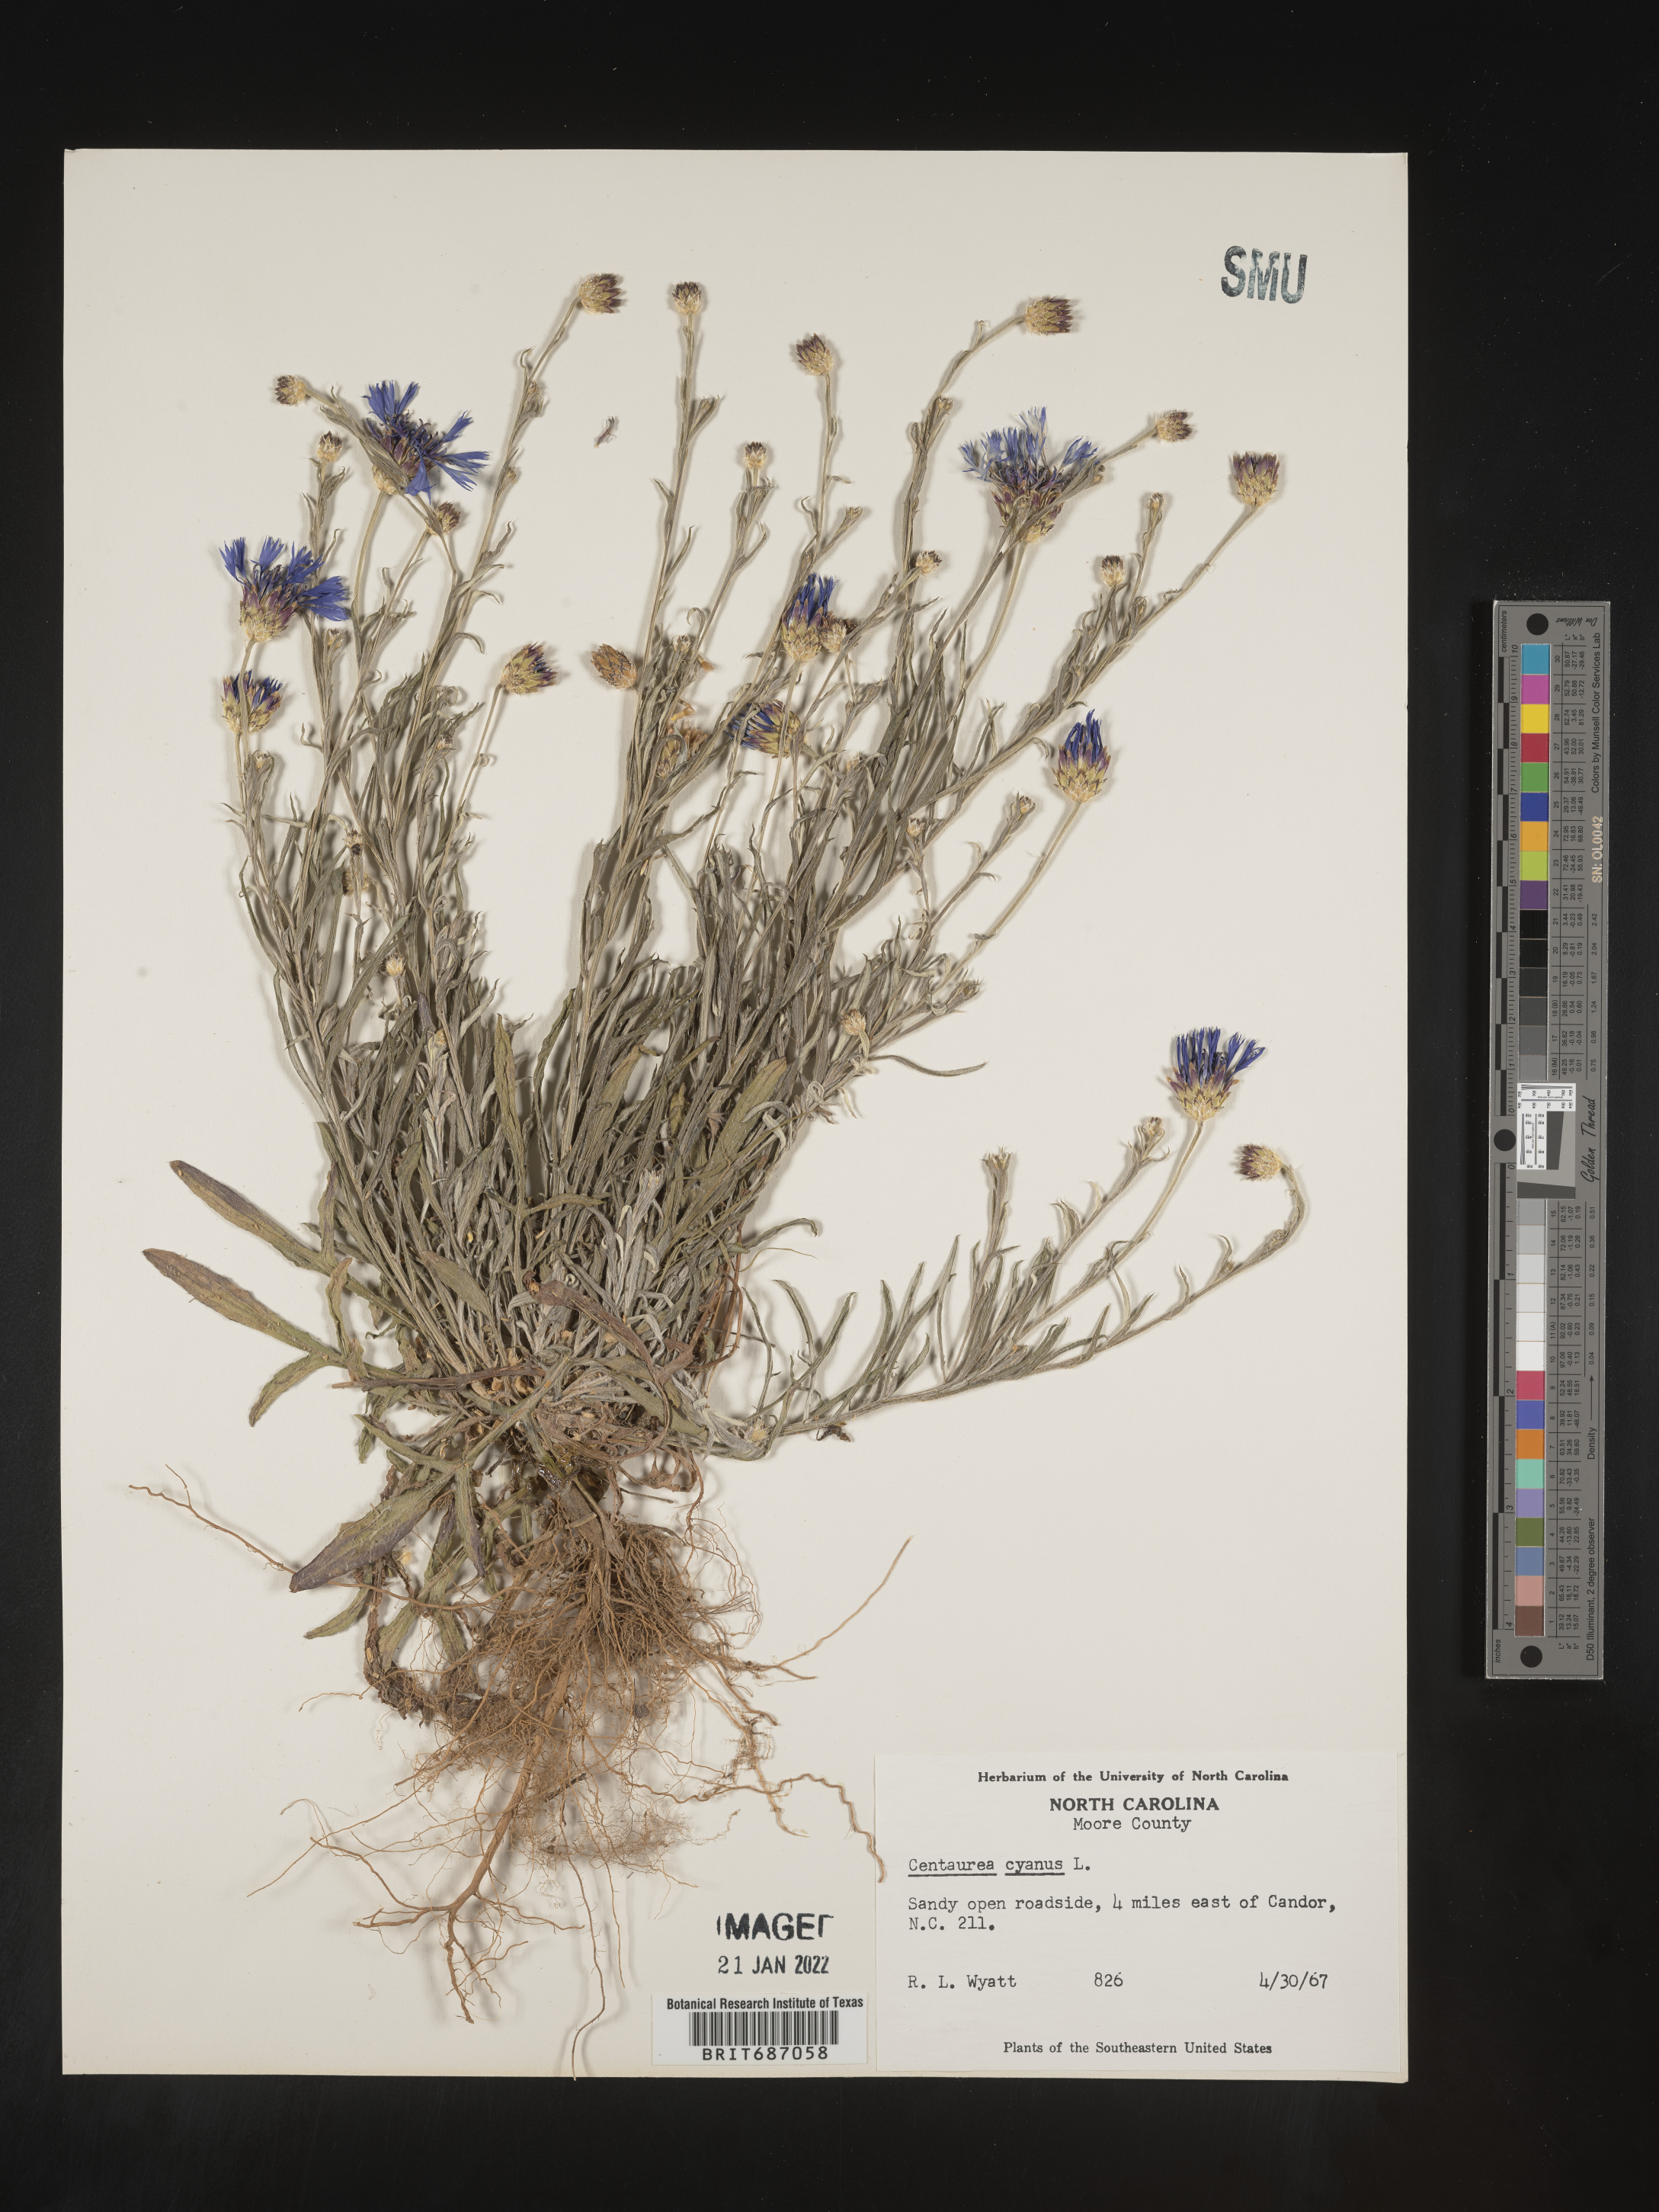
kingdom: Plantae
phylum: Tracheophyta
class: Magnoliopsida
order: Asterales
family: Asteraceae
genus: Centaurea
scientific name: Centaurea cyanus
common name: Cornflower
